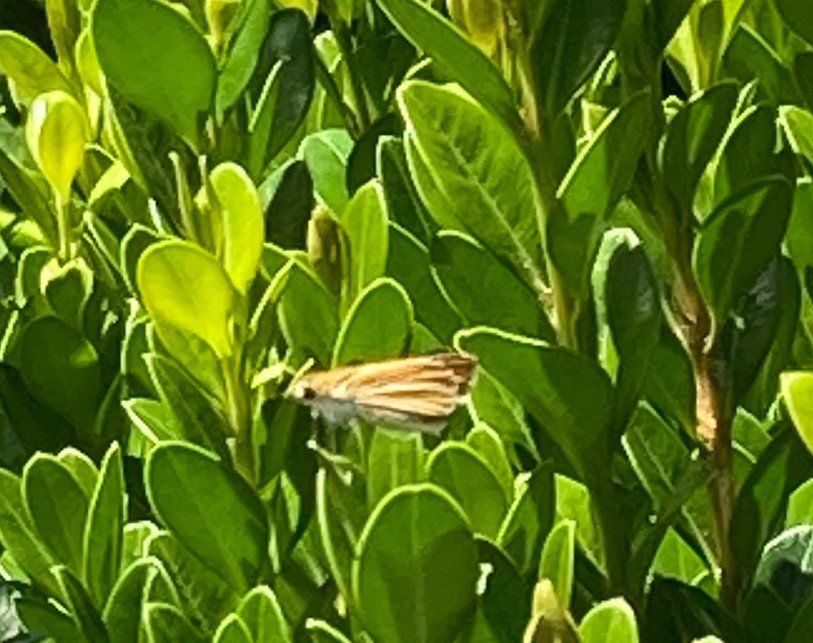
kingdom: Animalia
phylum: Arthropoda
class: Insecta
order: Lepidoptera
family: Hesperiidae
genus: Copaeodes
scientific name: Copaeodes minima
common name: Southern Skipperling
